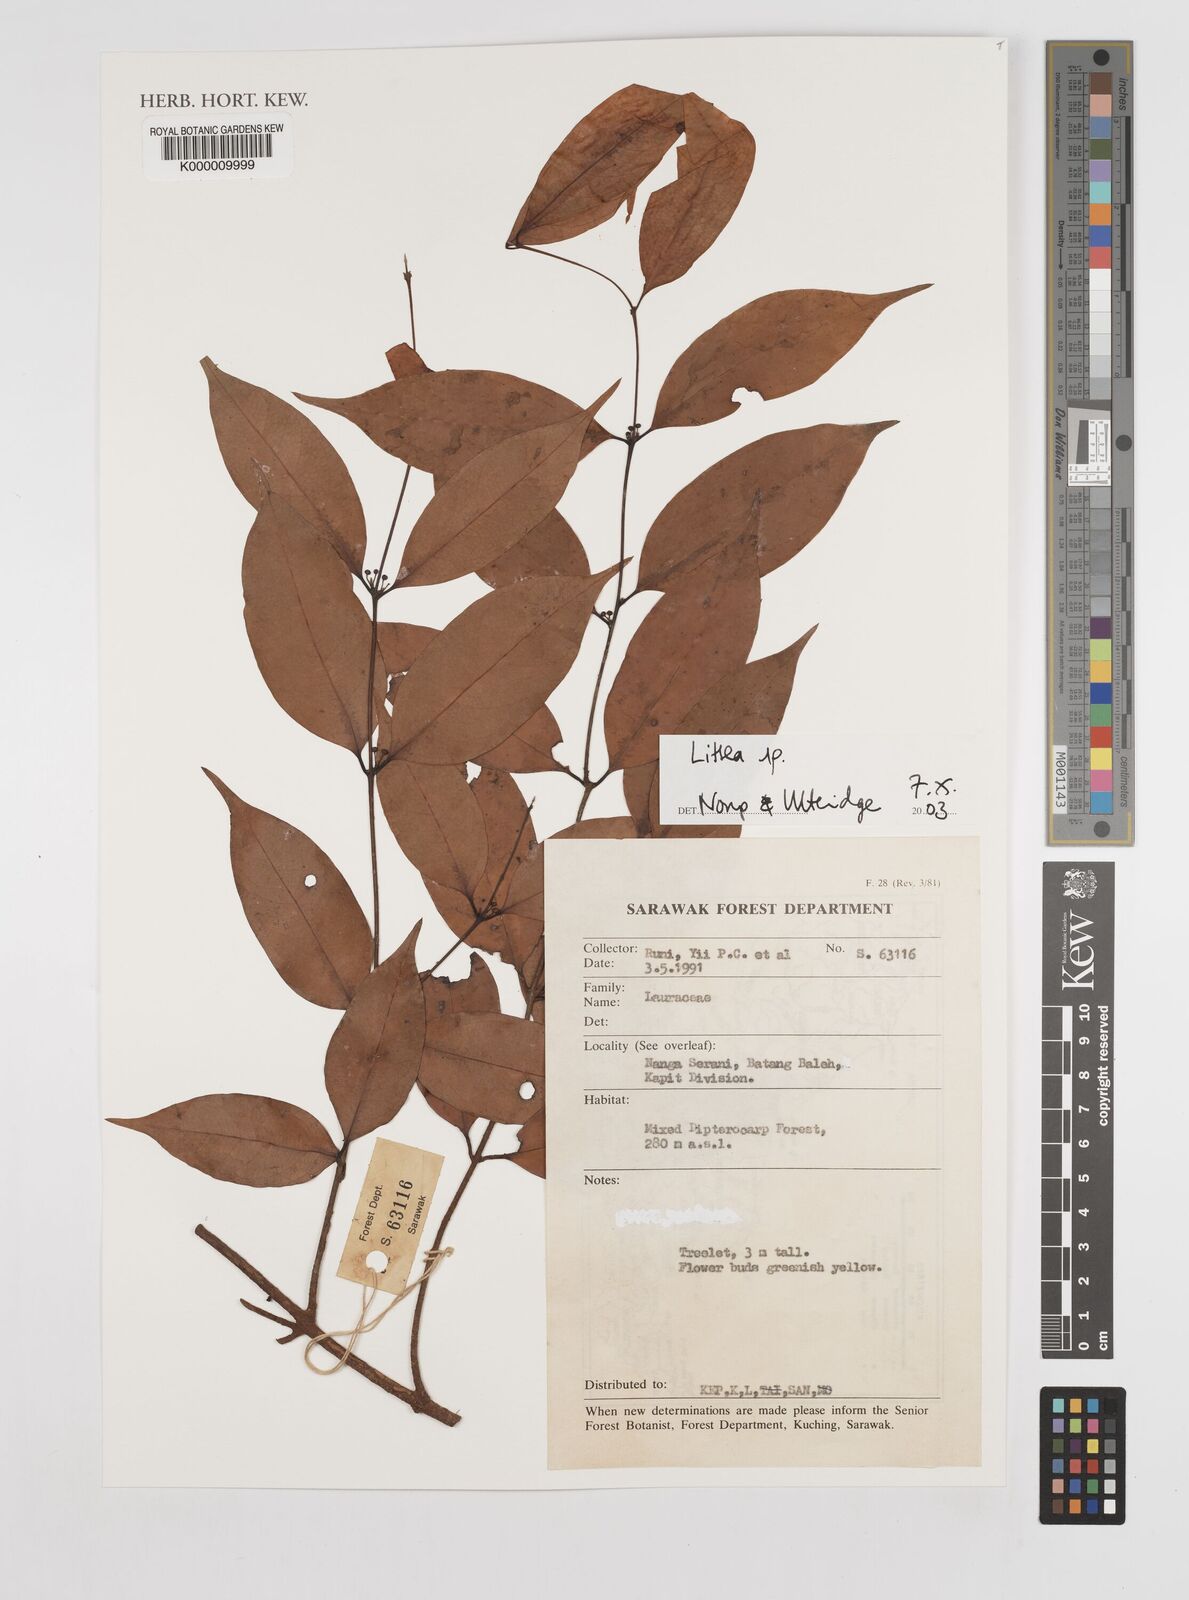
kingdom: Plantae
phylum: Tracheophyta
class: Magnoliopsida
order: Laurales
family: Lauraceae
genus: Litsea
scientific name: Litsea
